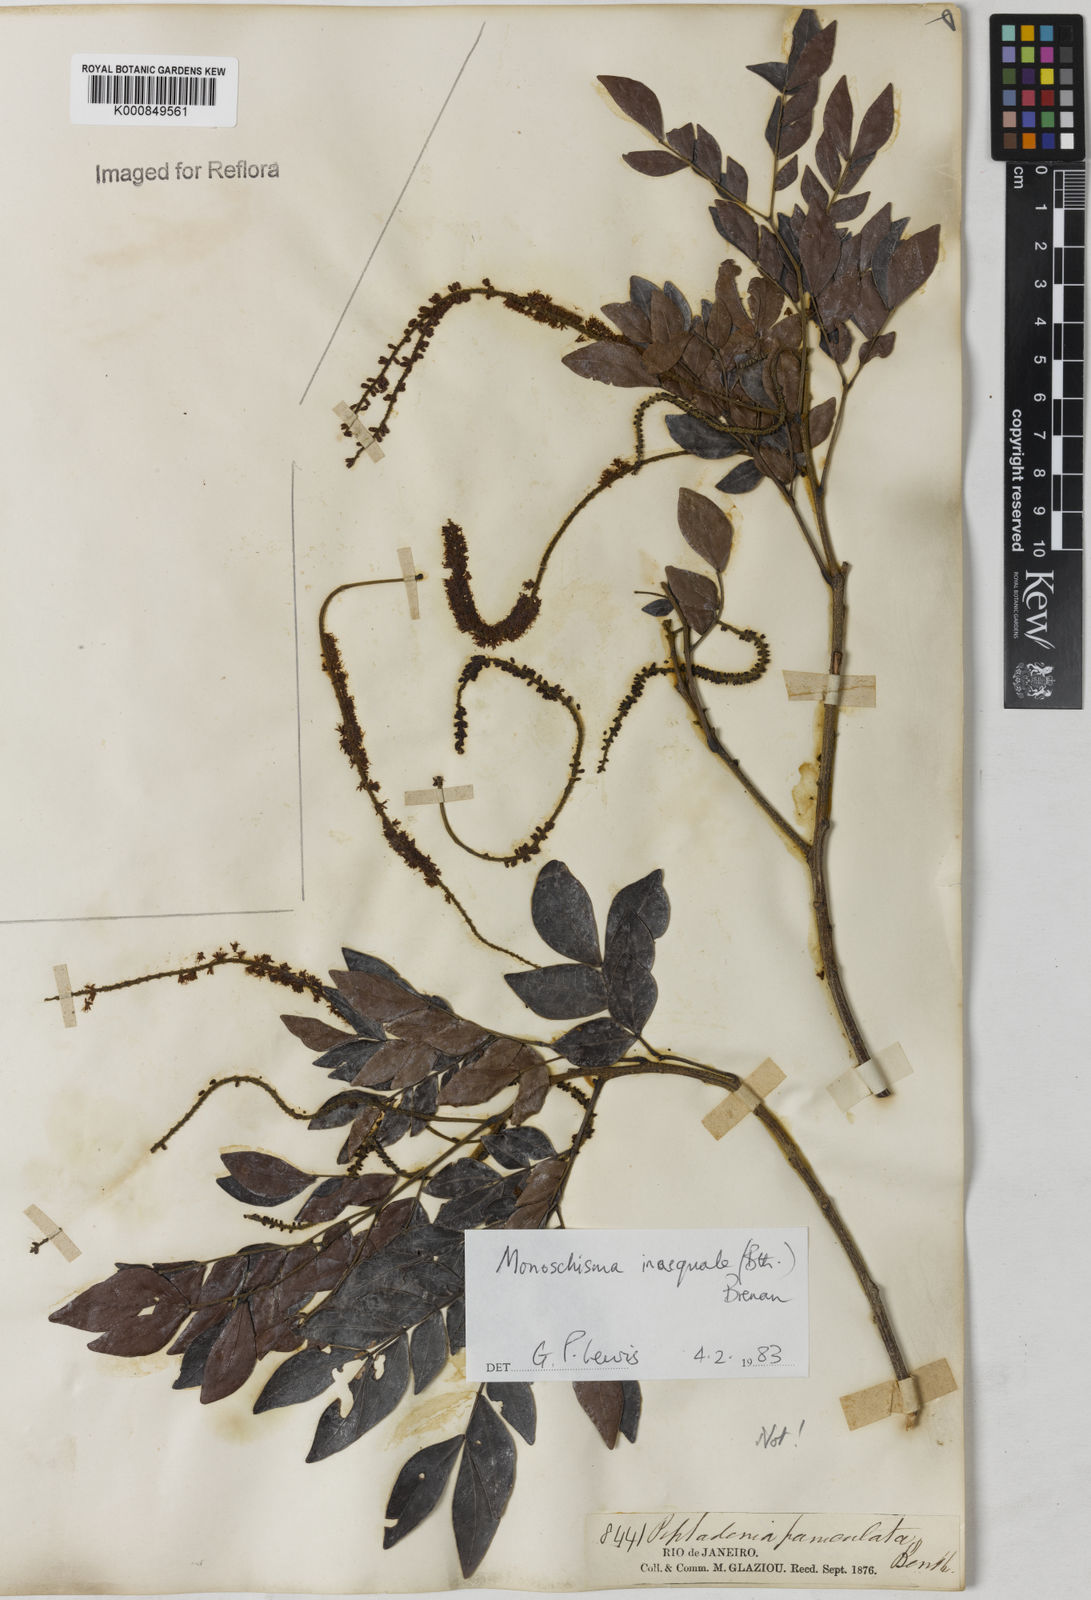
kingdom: Plantae
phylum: Tracheophyta
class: Magnoliopsida
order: Fabales
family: Fabaceae
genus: Pseudopiptadenia
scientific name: Pseudopiptadenia inaequalis
